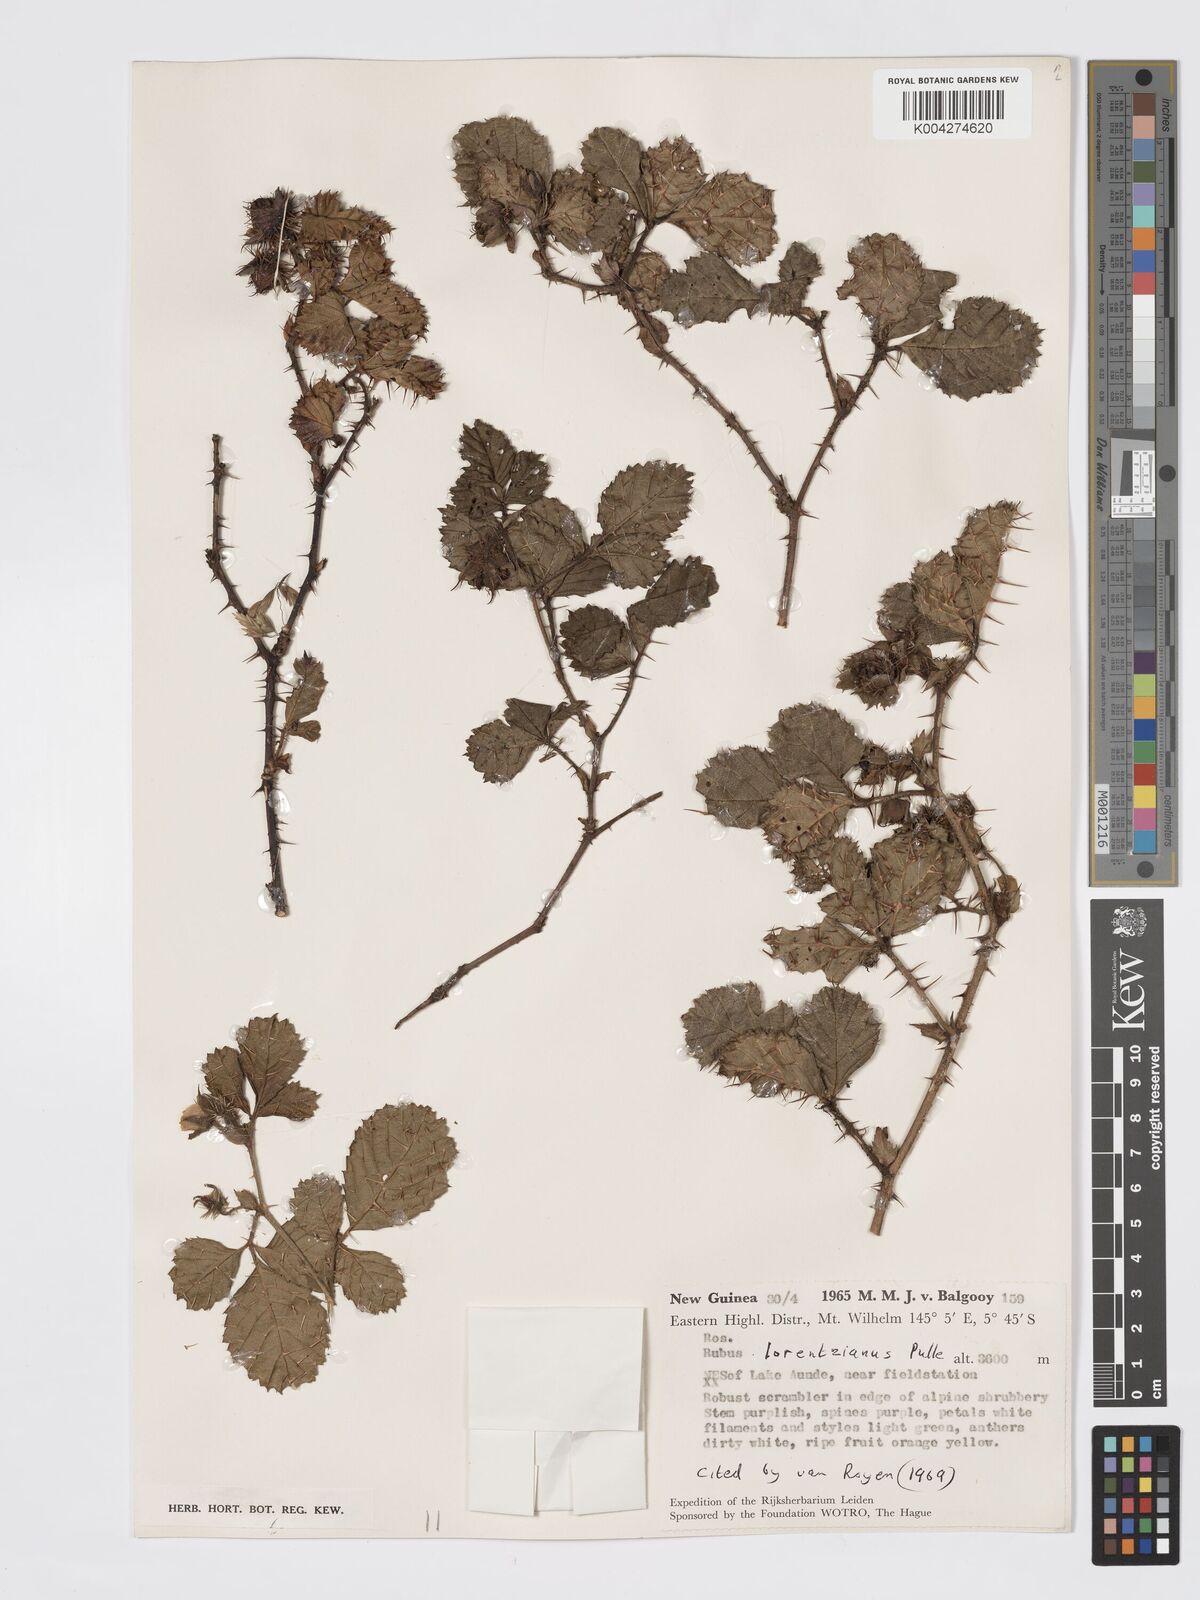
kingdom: Plantae
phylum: Tracheophyta
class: Magnoliopsida
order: Rosales
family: Rosaceae
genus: Rubus
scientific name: Rubus lorentzianus
